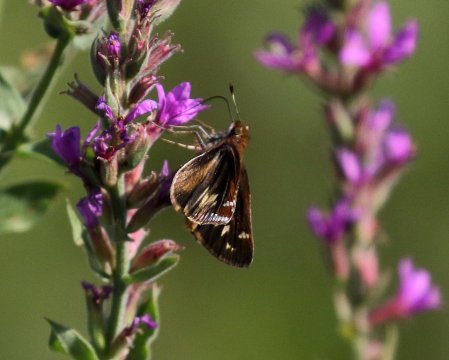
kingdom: Animalia
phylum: Arthropoda
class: Insecta
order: Lepidoptera
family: Hesperiidae
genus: Lon
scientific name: Lon zabulon
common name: Zabulon Skipper
